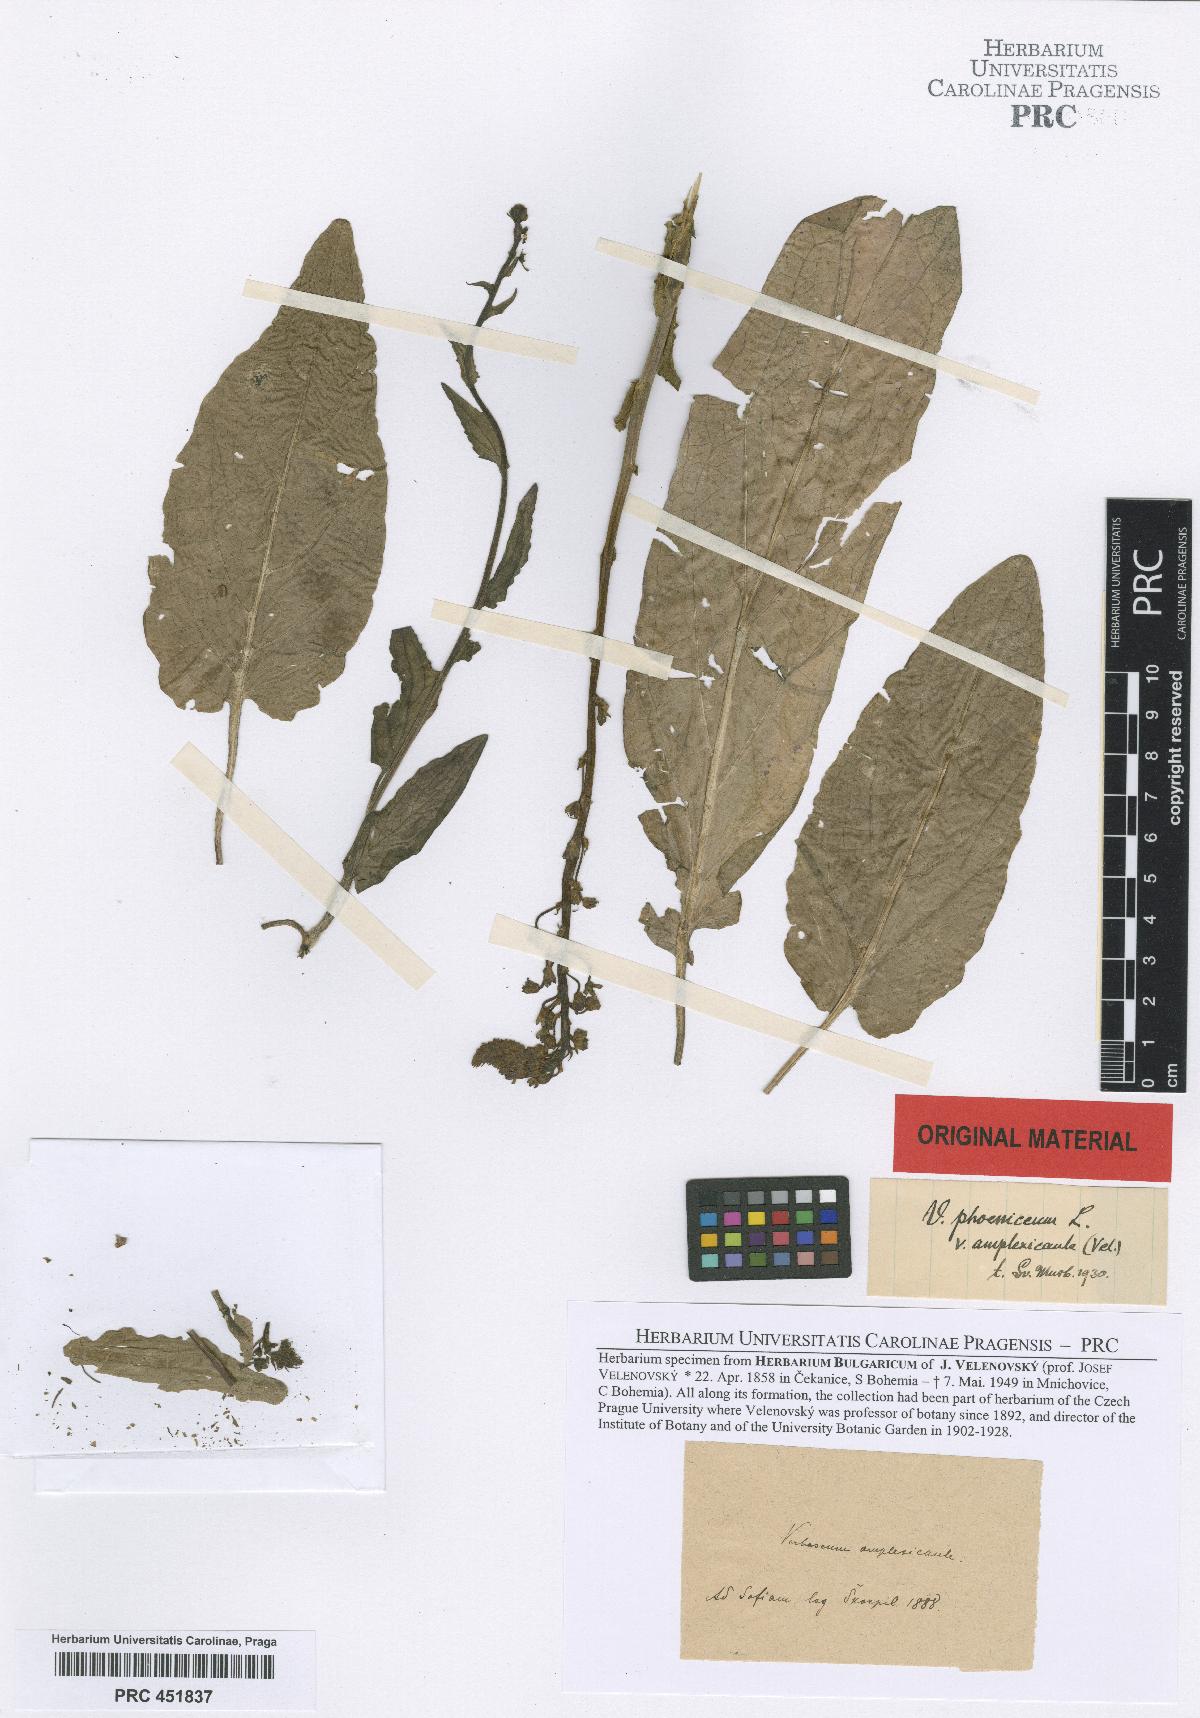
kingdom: Plantae
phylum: Tracheophyta
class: Magnoliopsida
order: Lamiales
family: Scrophulariaceae
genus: Verbascum
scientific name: Verbascum phoeniceum
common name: Purple mullein
